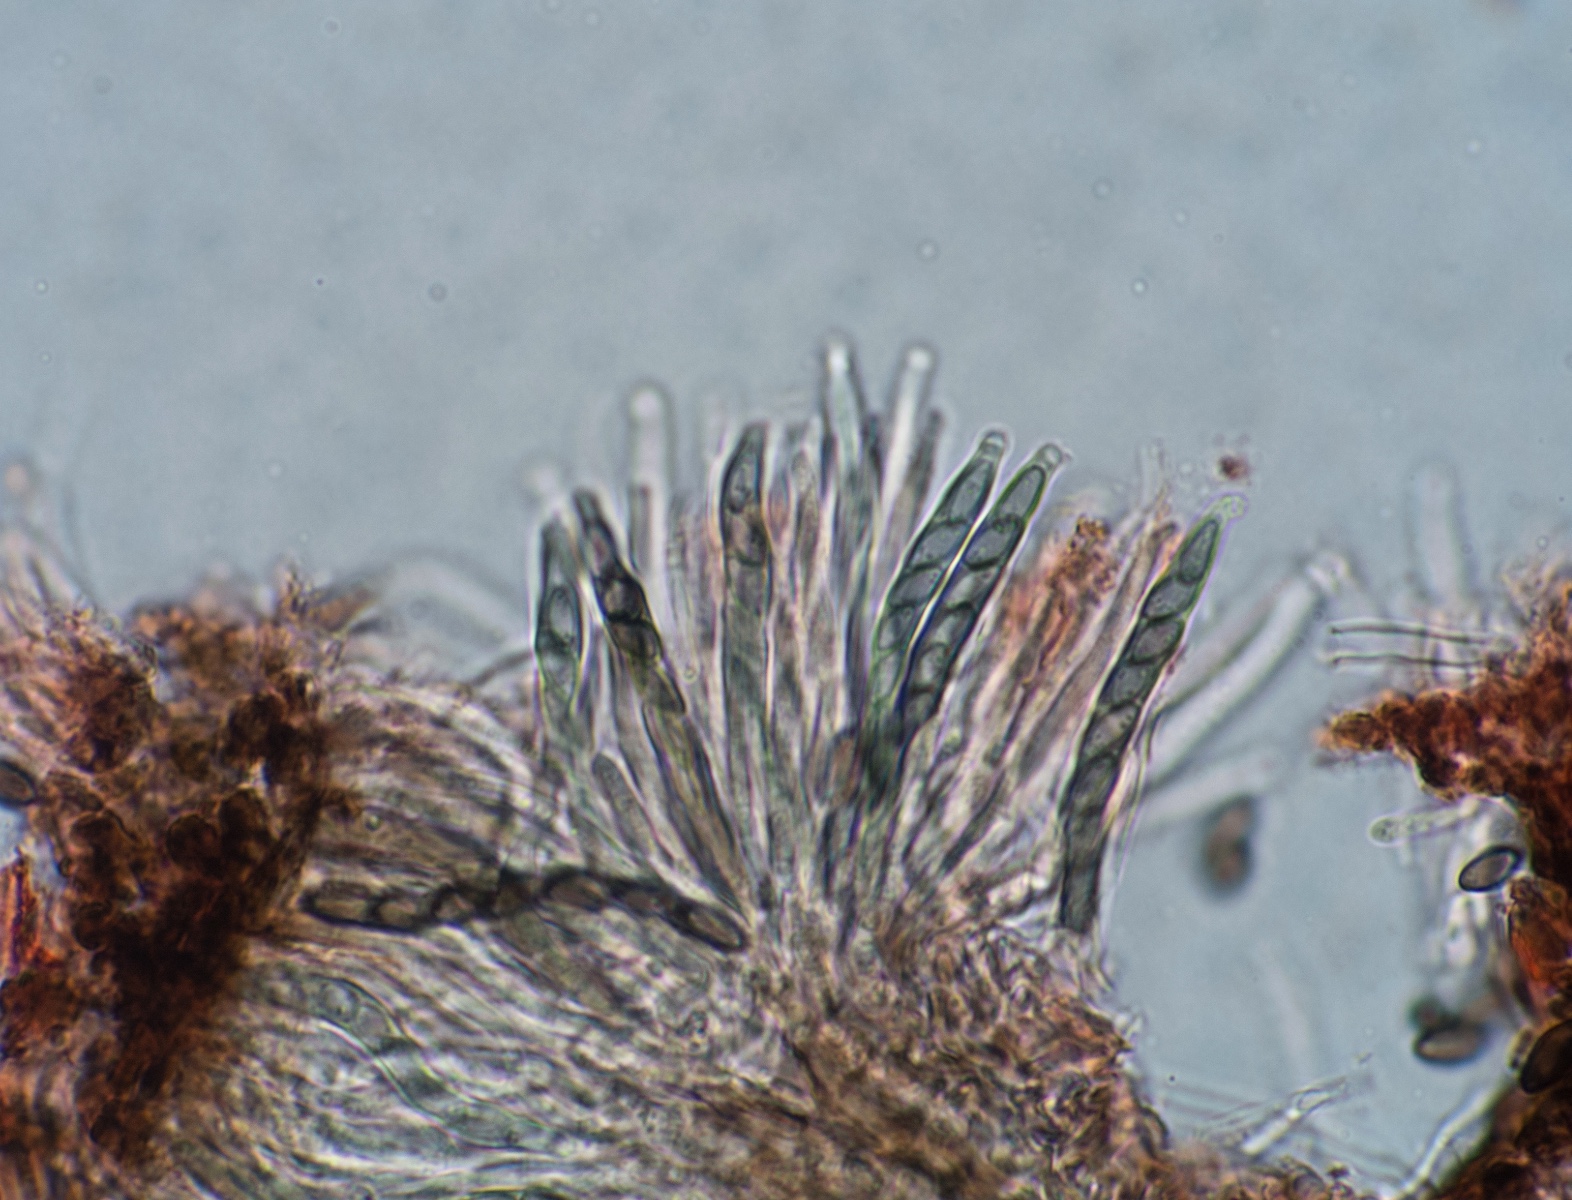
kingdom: Fungi
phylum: Ascomycota
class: Eurotiomycetes
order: Mycocaliciales
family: Mycocaliciaceae
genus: Mycocalicium
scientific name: Mycocalicium subtile
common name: ved-nålesvamp
